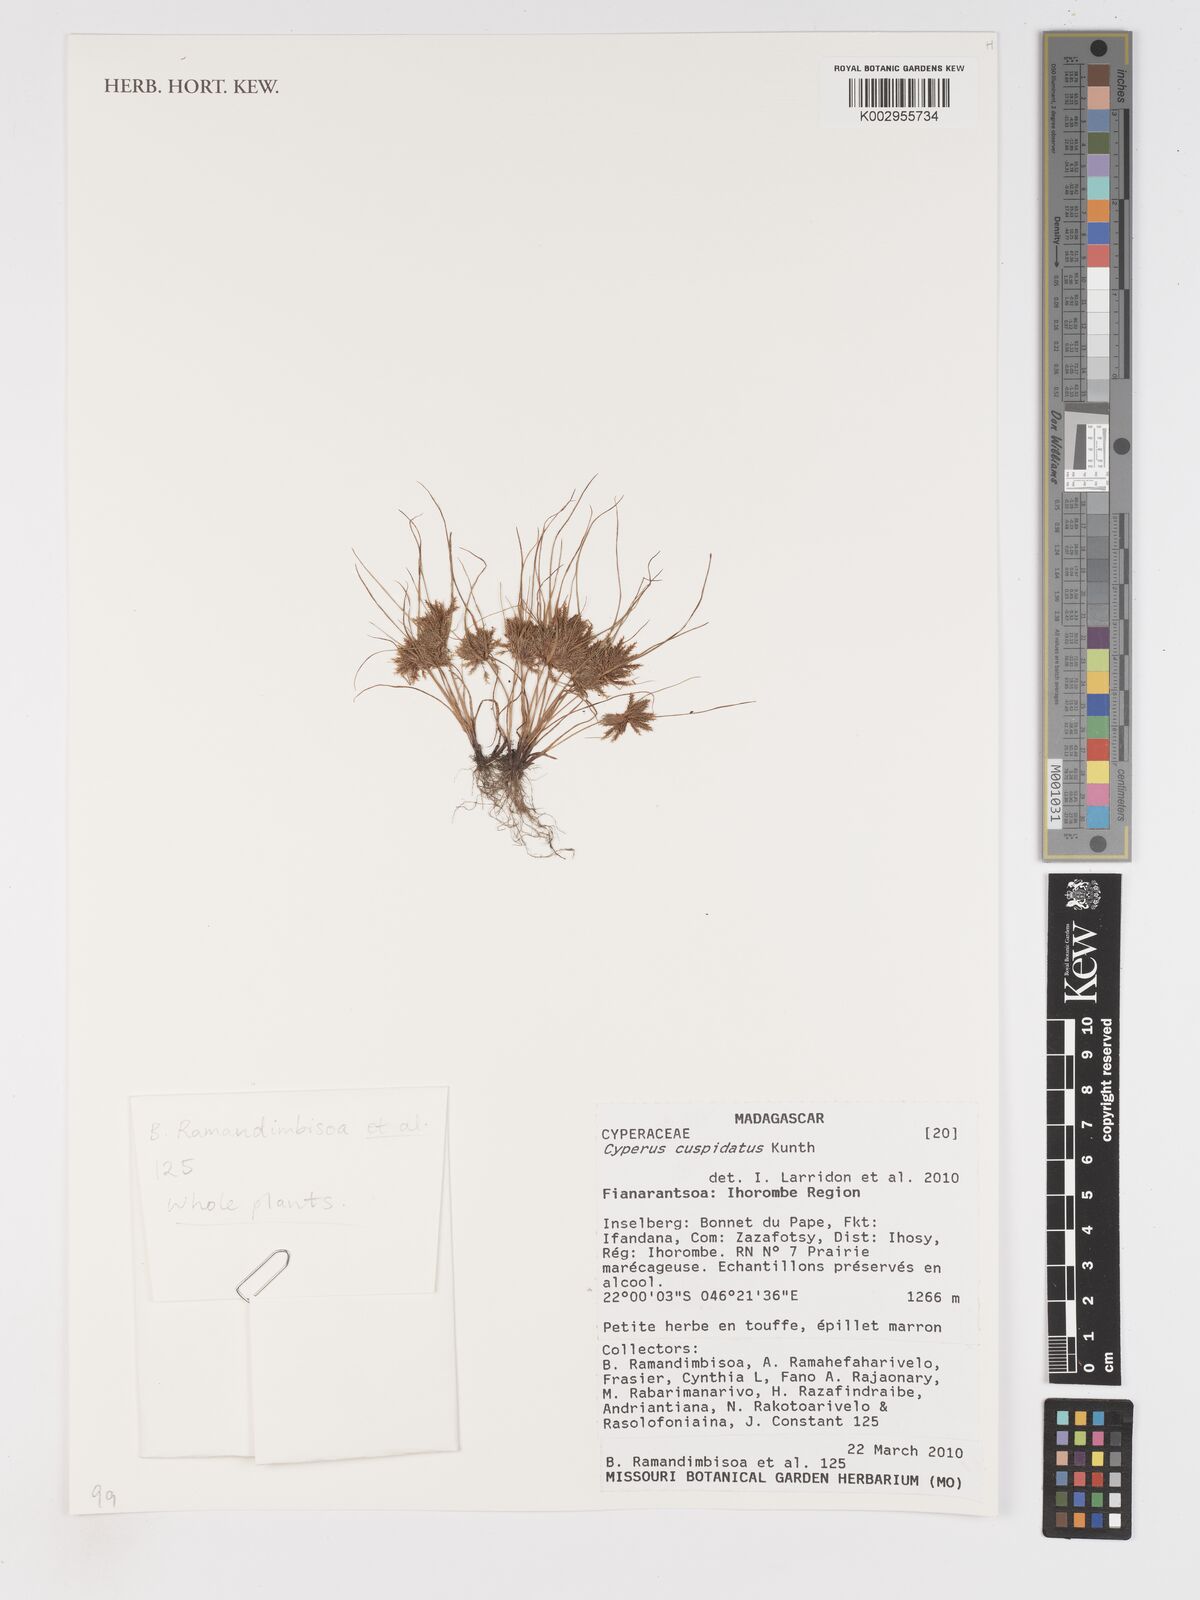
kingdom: Plantae
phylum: Tracheophyta
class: Liliopsida
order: Poales
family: Cyperaceae
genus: Cyperus
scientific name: Cyperus cuspidatus
